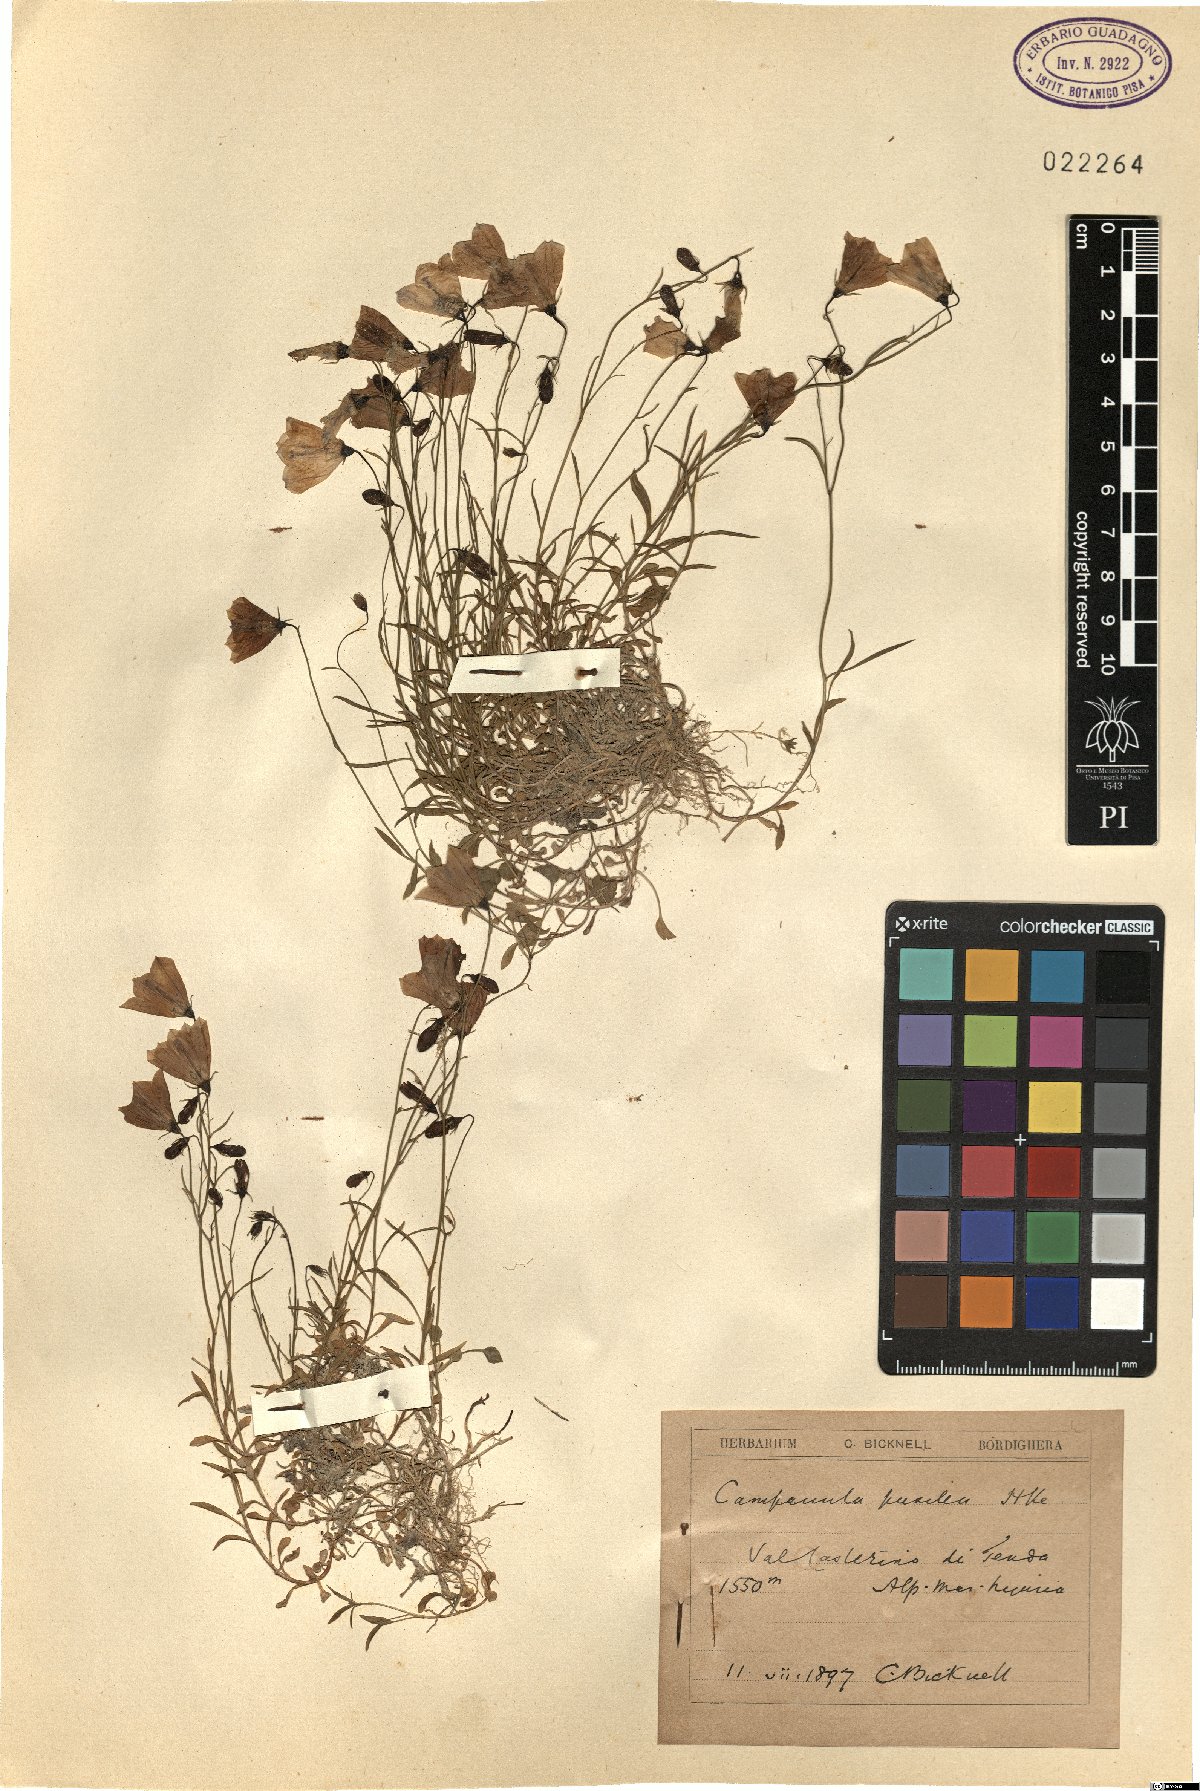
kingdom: Plantae
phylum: Tracheophyta
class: Magnoliopsida
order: Asterales
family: Campanulaceae
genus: Campanula
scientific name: Campanula cochleariifolia
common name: Fairies'-thimbles
